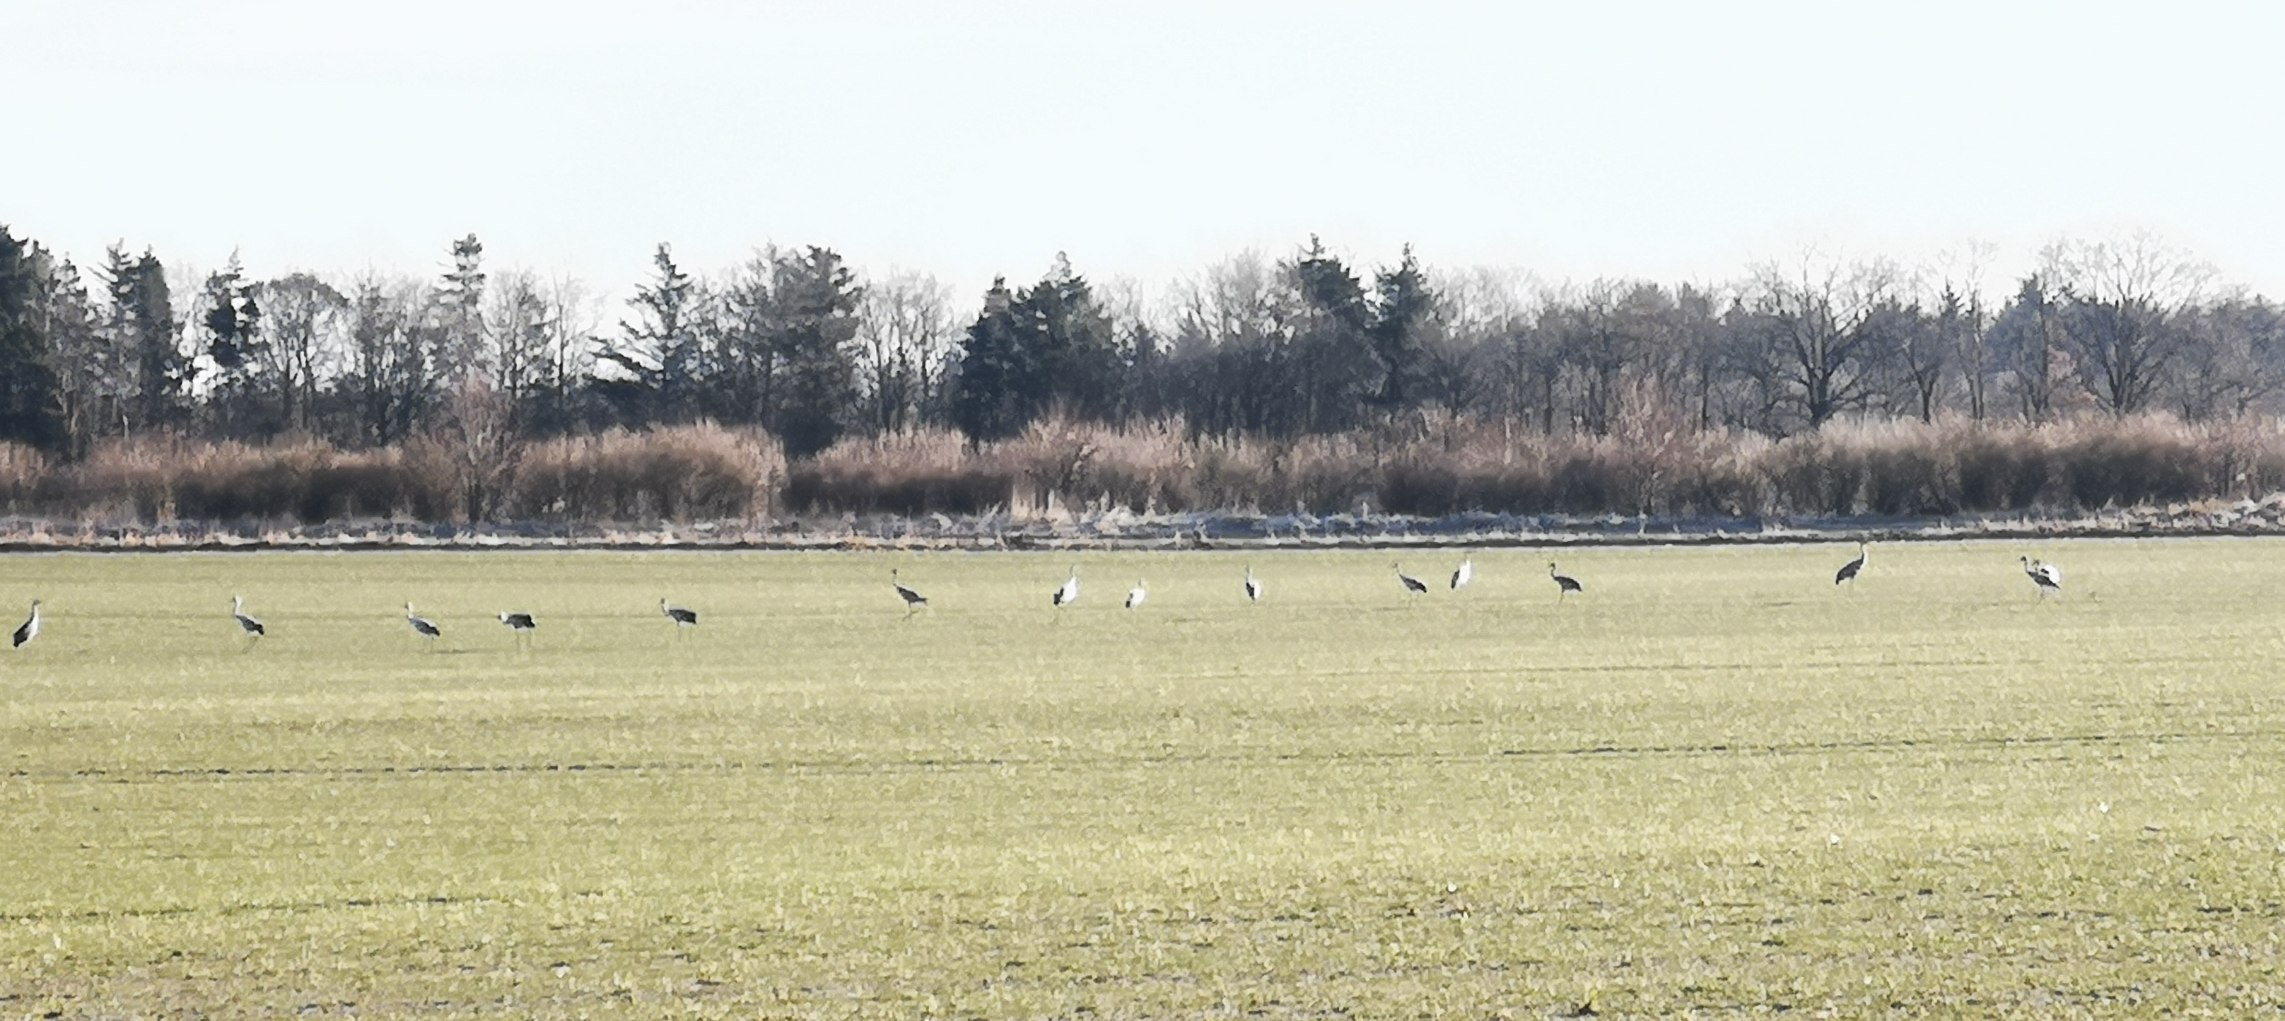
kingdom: Animalia
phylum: Chordata
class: Aves
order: Gruiformes
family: Gruidae
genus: Grus
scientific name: Grus grus
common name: Trane
